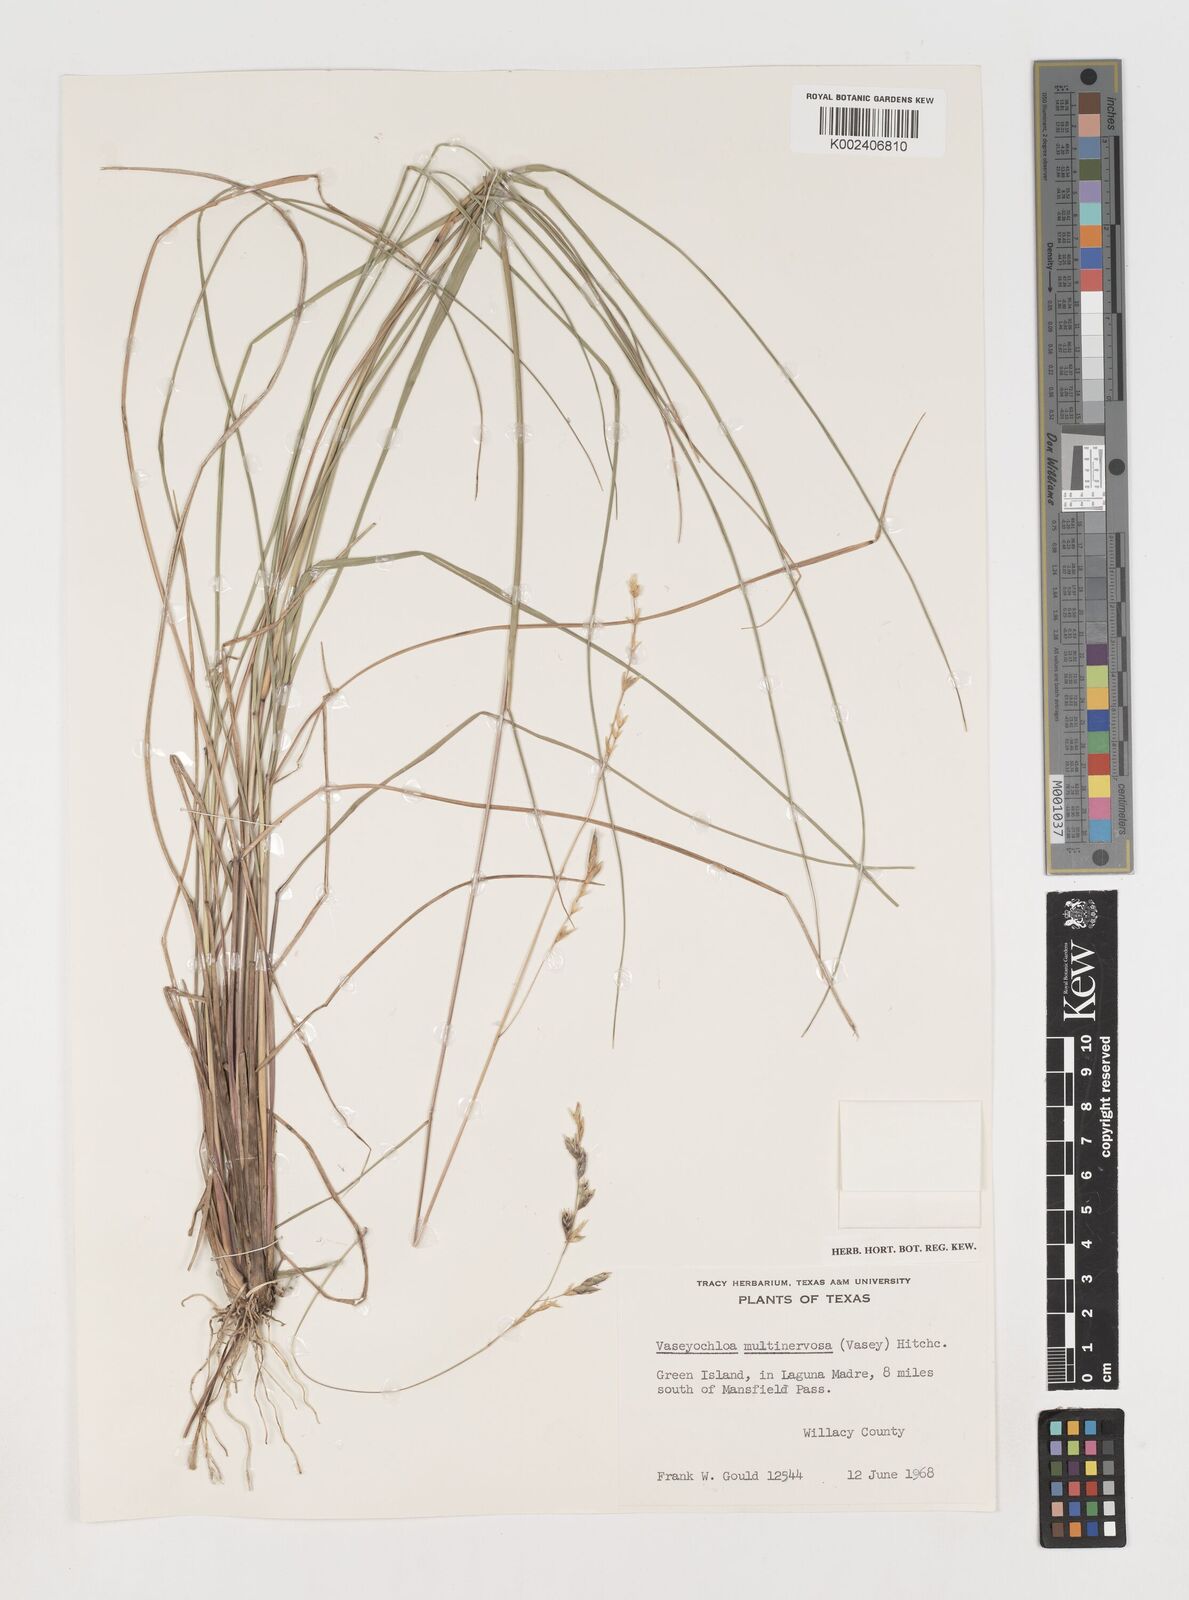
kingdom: Plantae
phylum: Tracheophyta
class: Liliopsida
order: Poales
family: Poaceae
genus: Vaseyochloa
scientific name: Vaseyochloa multinervosa
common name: Texas grass
